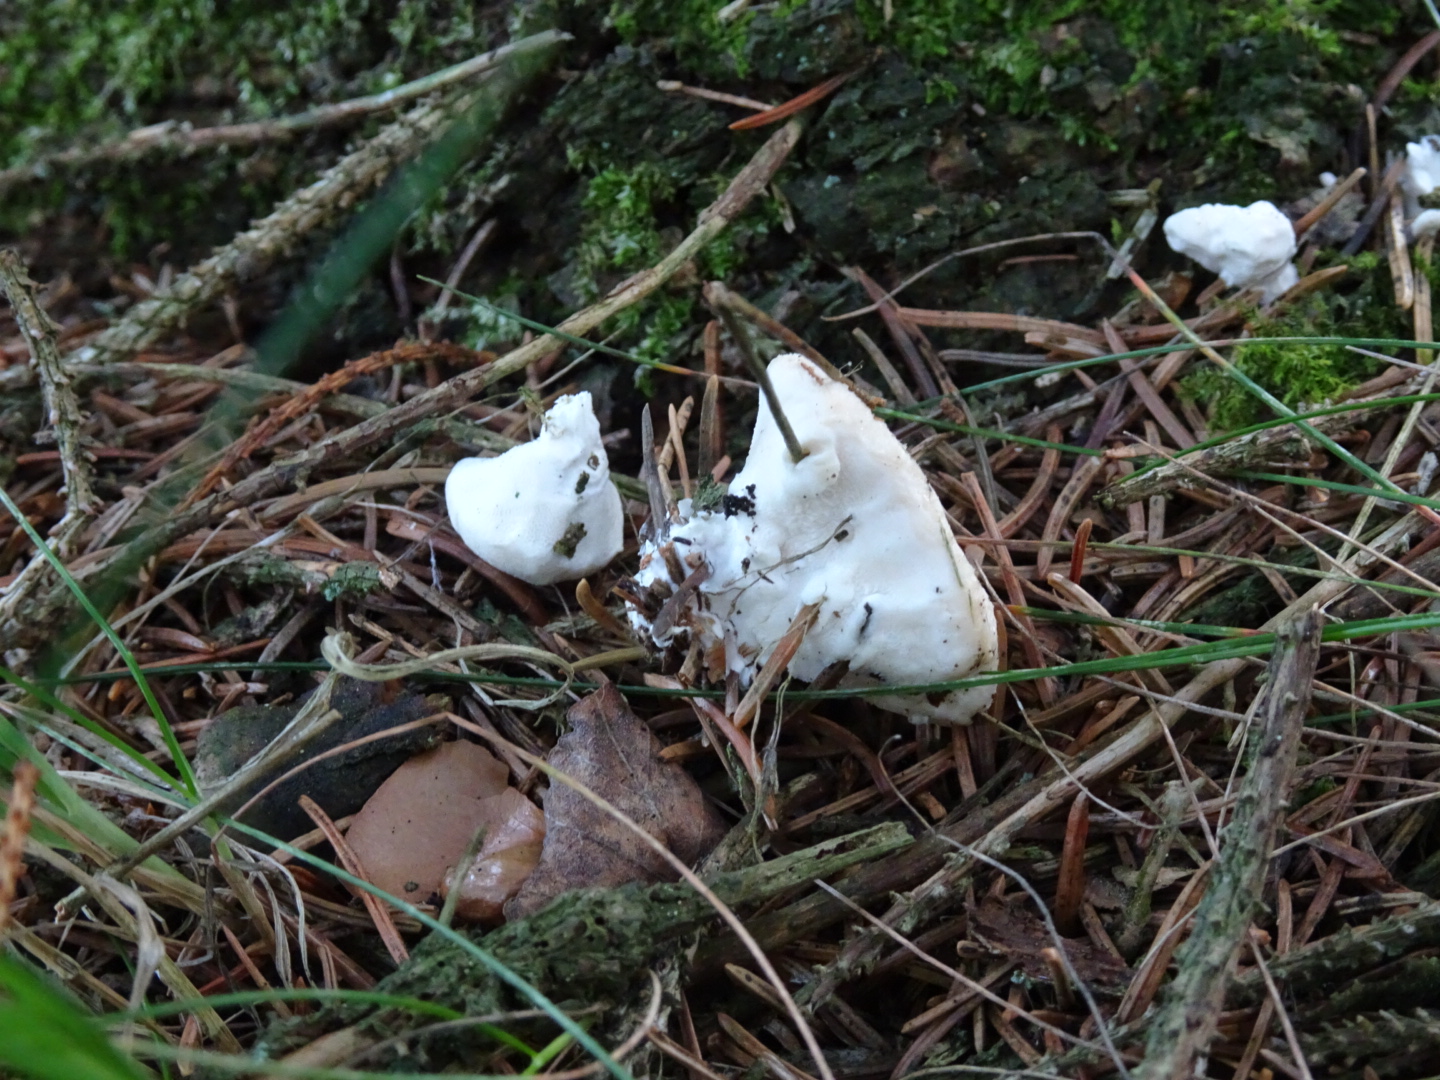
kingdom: Fungi
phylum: Basidiomycota
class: Agaricomycetes
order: Polyporales
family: Incrustoporiaceae
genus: Tyromyces
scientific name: Tyromyces lacteus
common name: mælkehvid kødporesvamp
